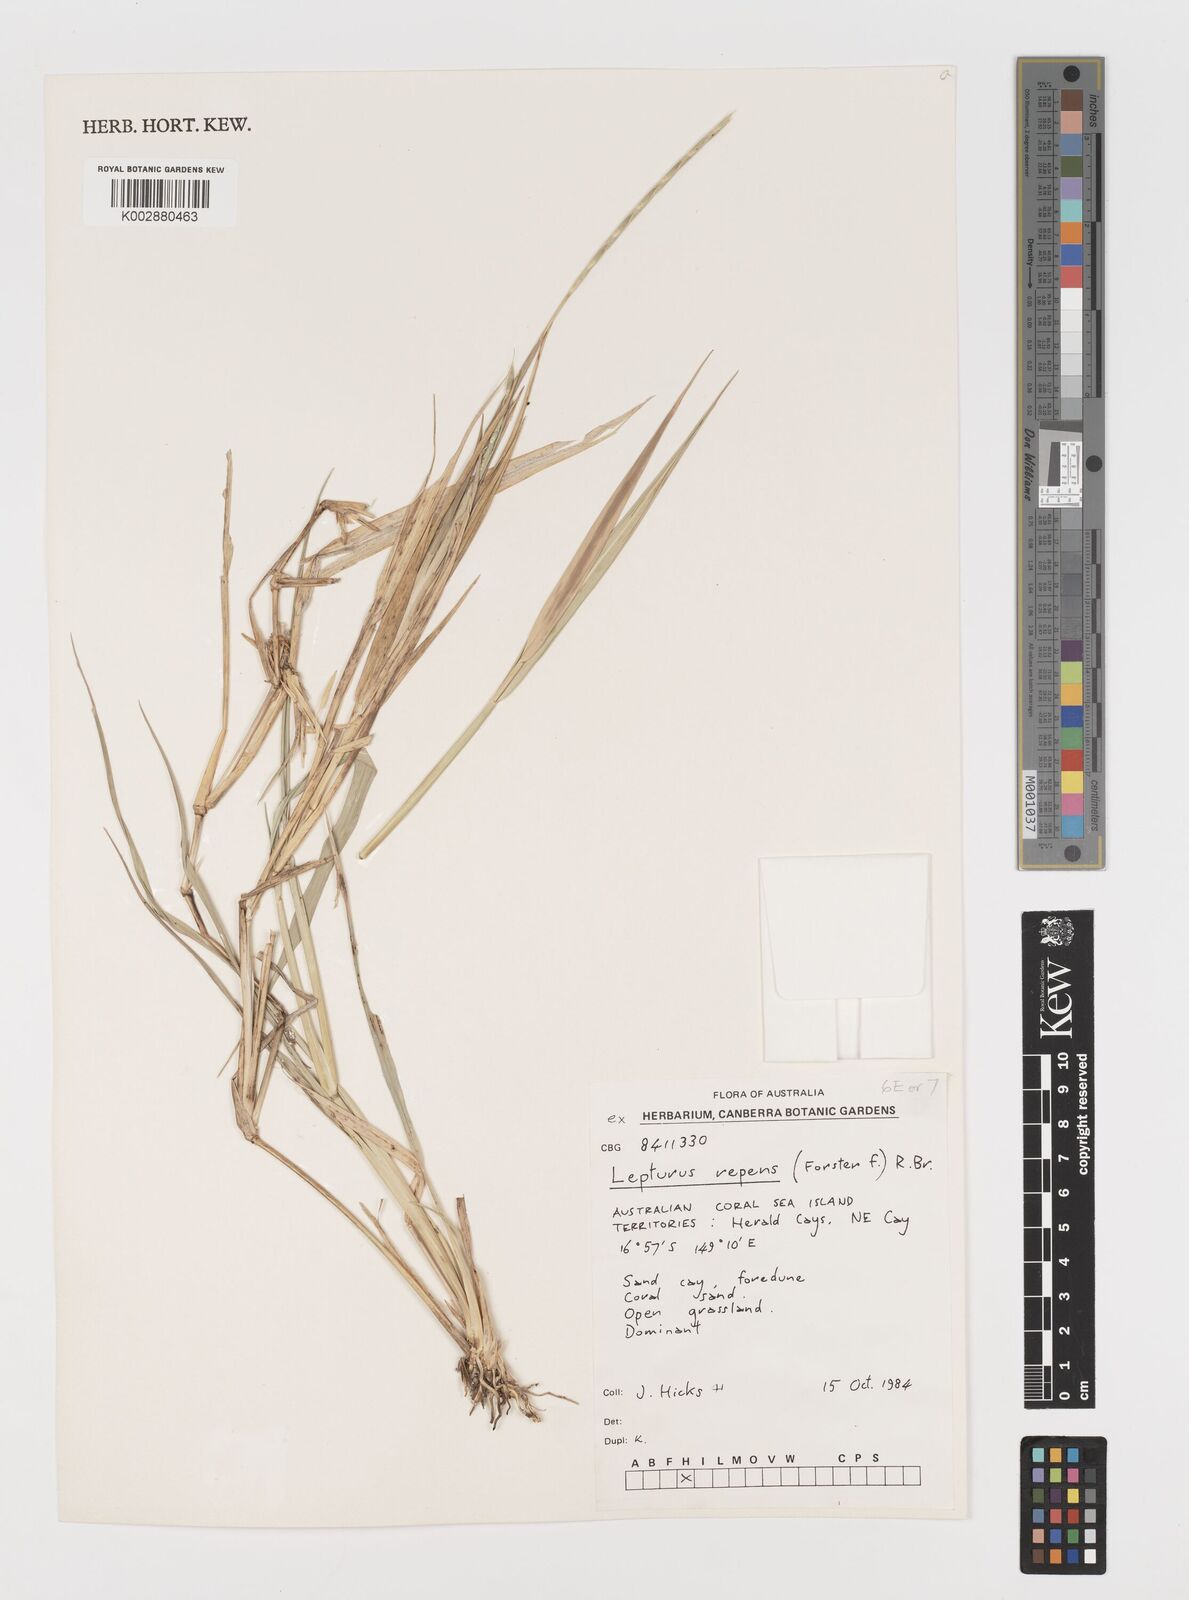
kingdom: Plantae
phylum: Tracheophyta
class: Liliopsida
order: Poales
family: Poaceae
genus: Lepturus
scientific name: Lepturus repens
